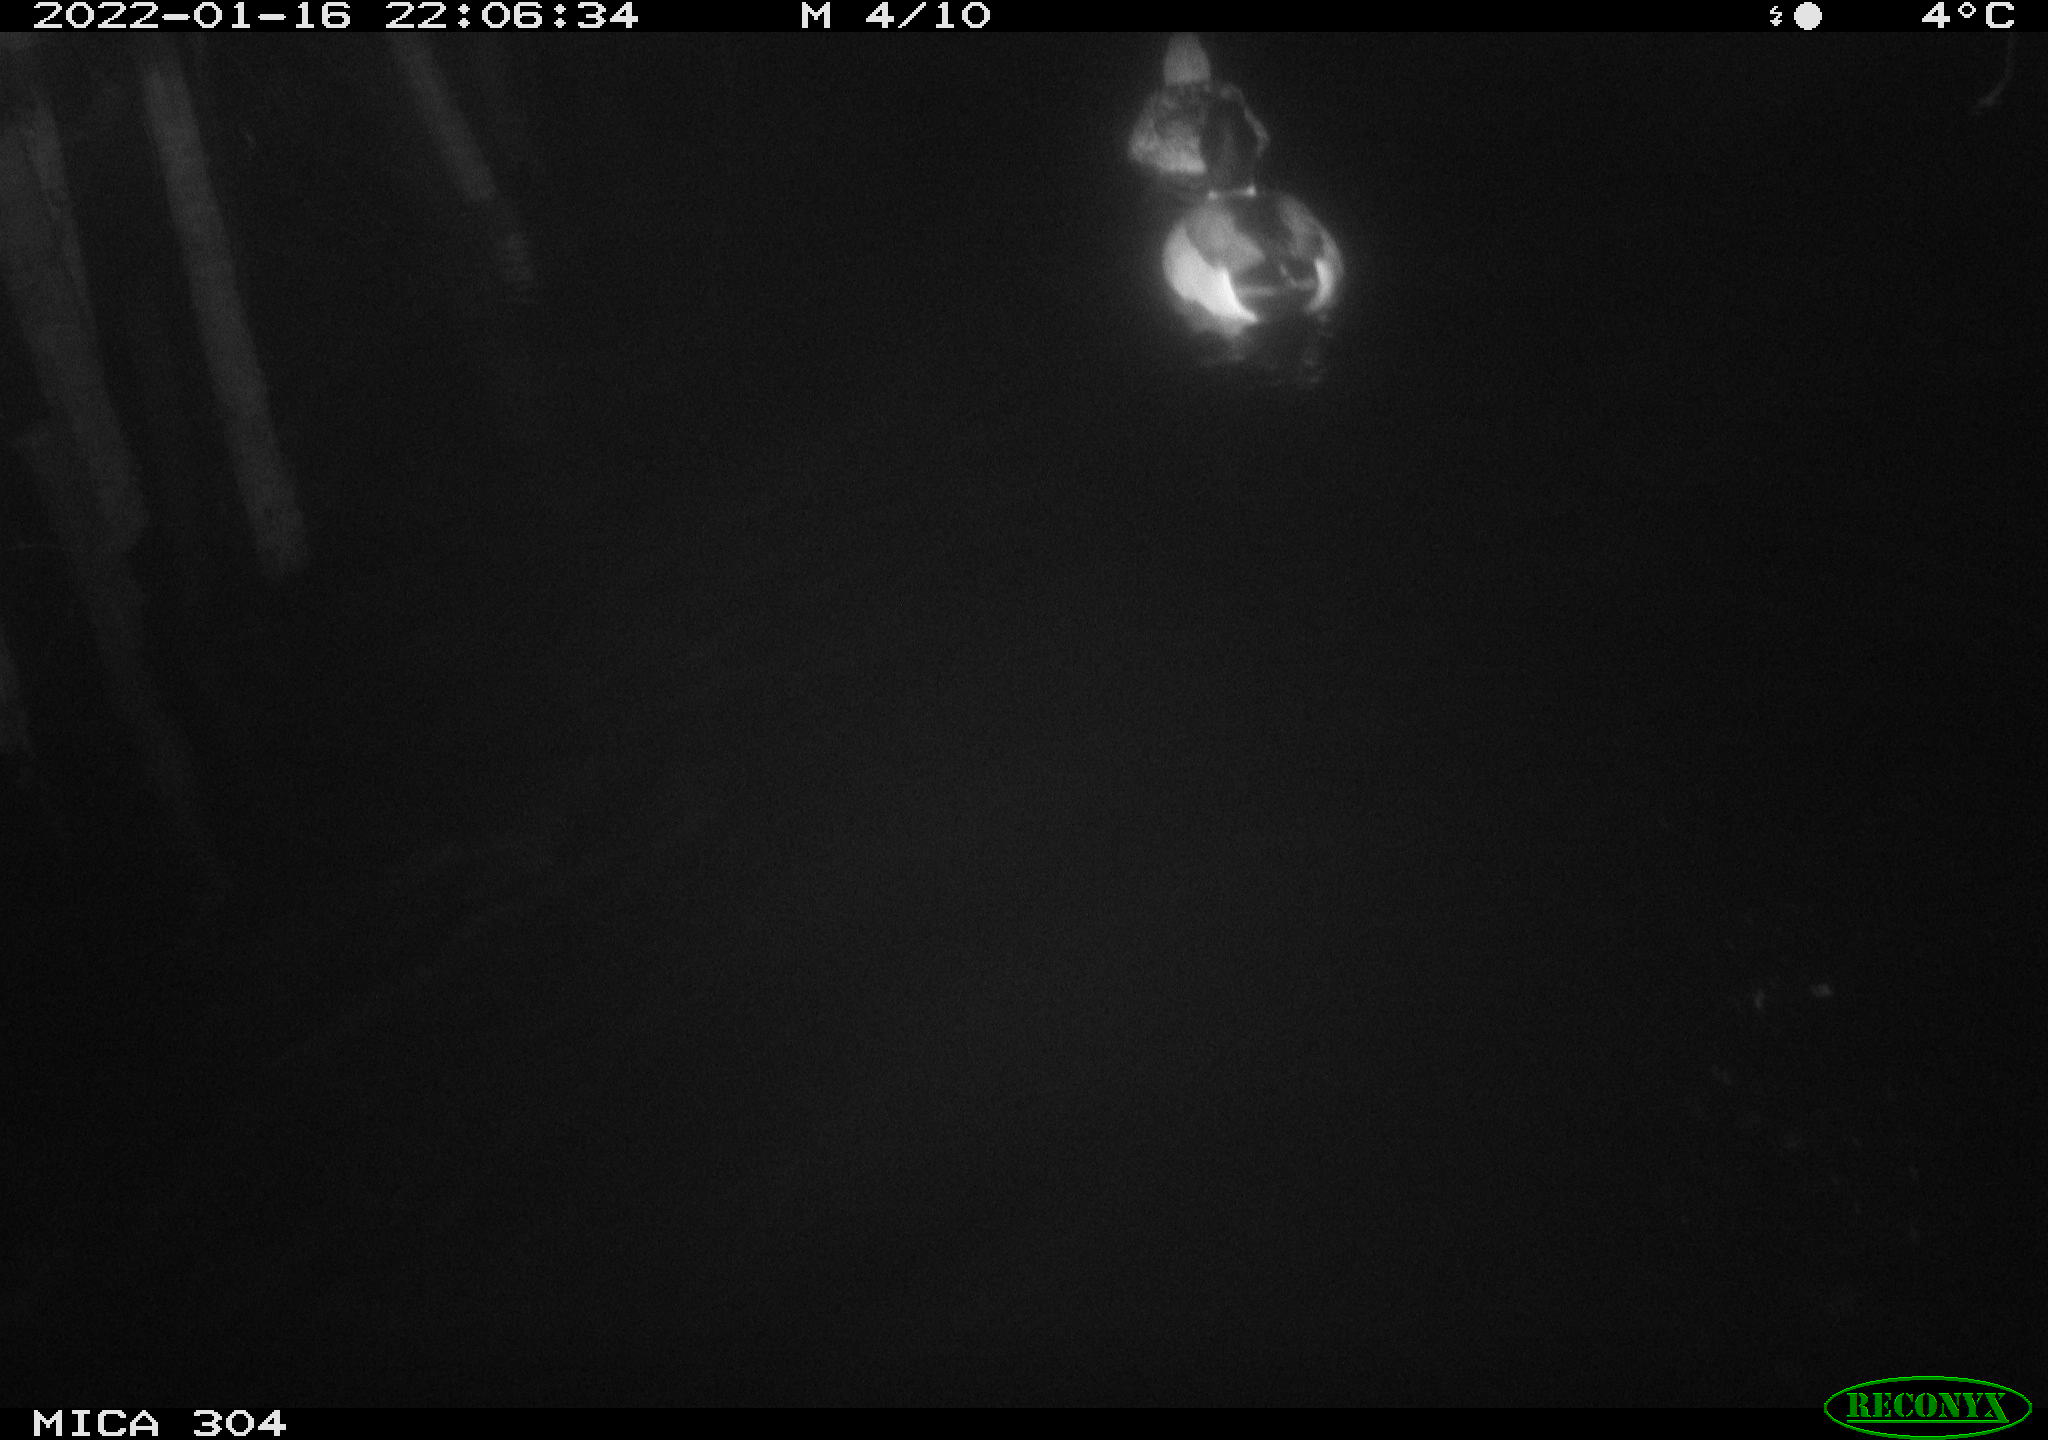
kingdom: Animalia
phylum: Chordata
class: Aves
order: Anseriformes
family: Anatidae
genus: Anas
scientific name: Anas
